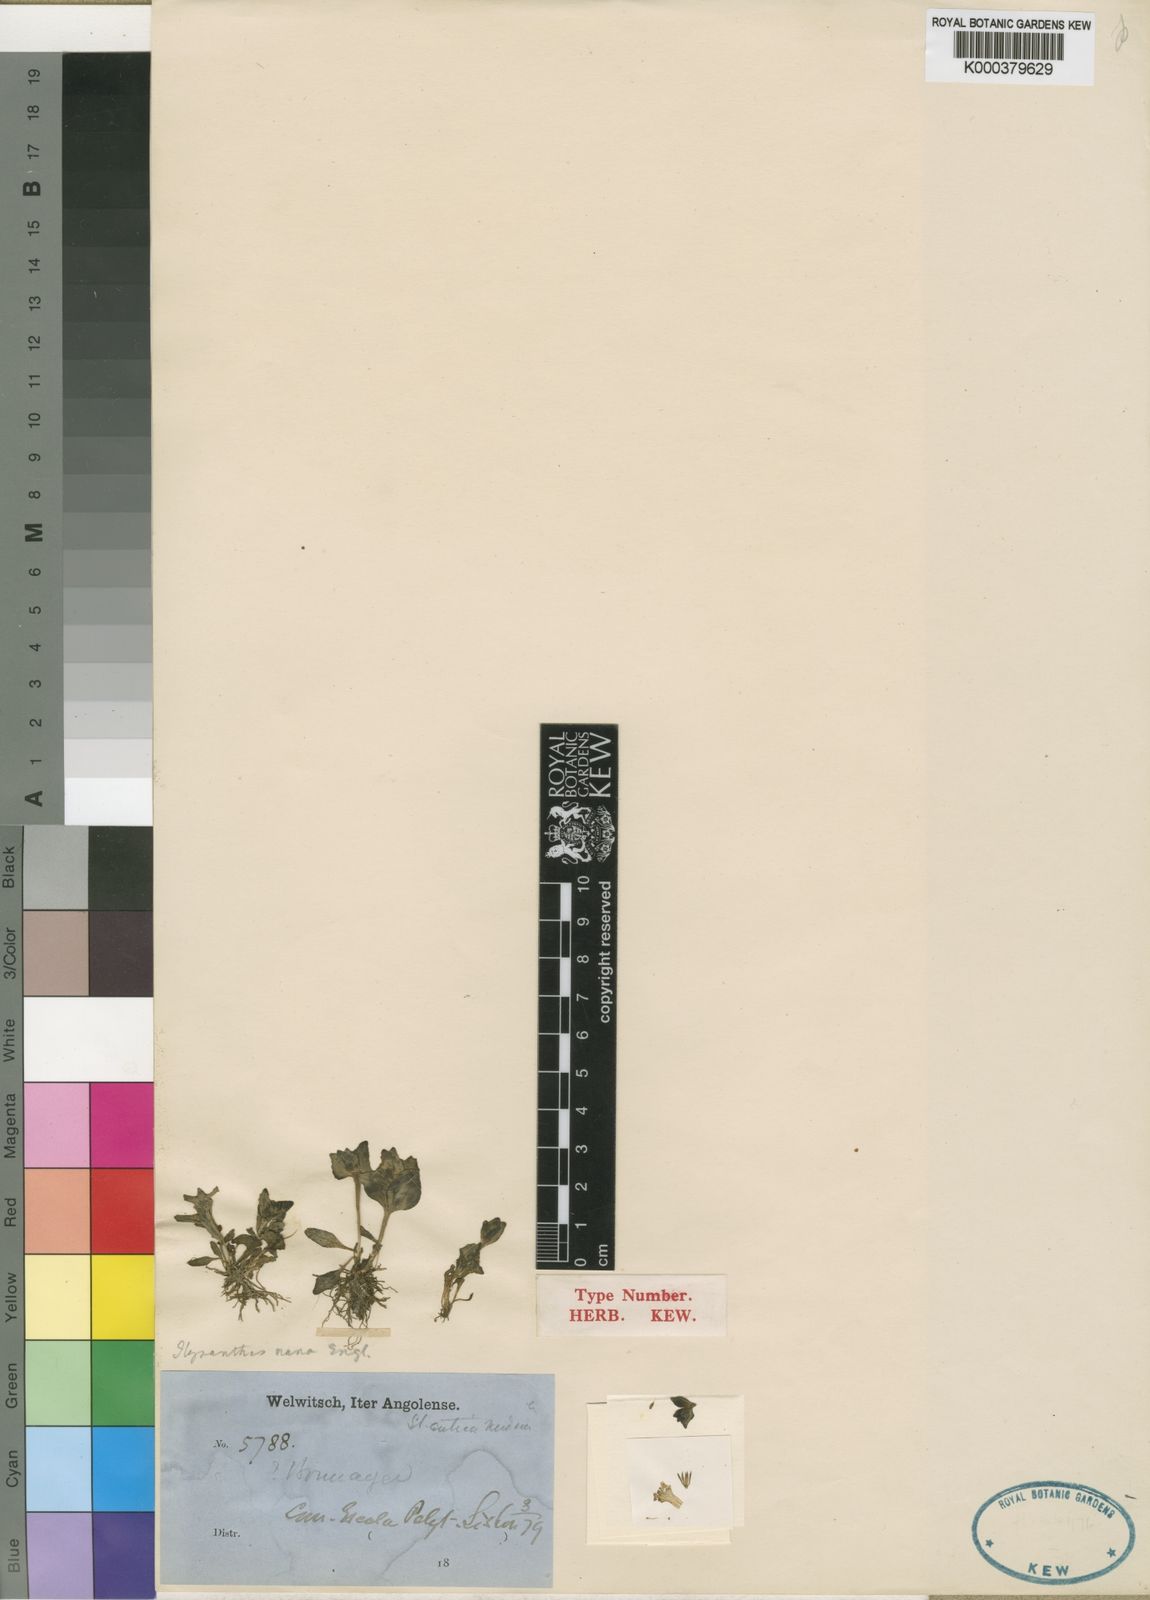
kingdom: Plantae
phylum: Tracheophyta
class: Magnoliopsida
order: Lamiales
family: Linderniaceae
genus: Linderniella
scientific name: Linderniella nana
